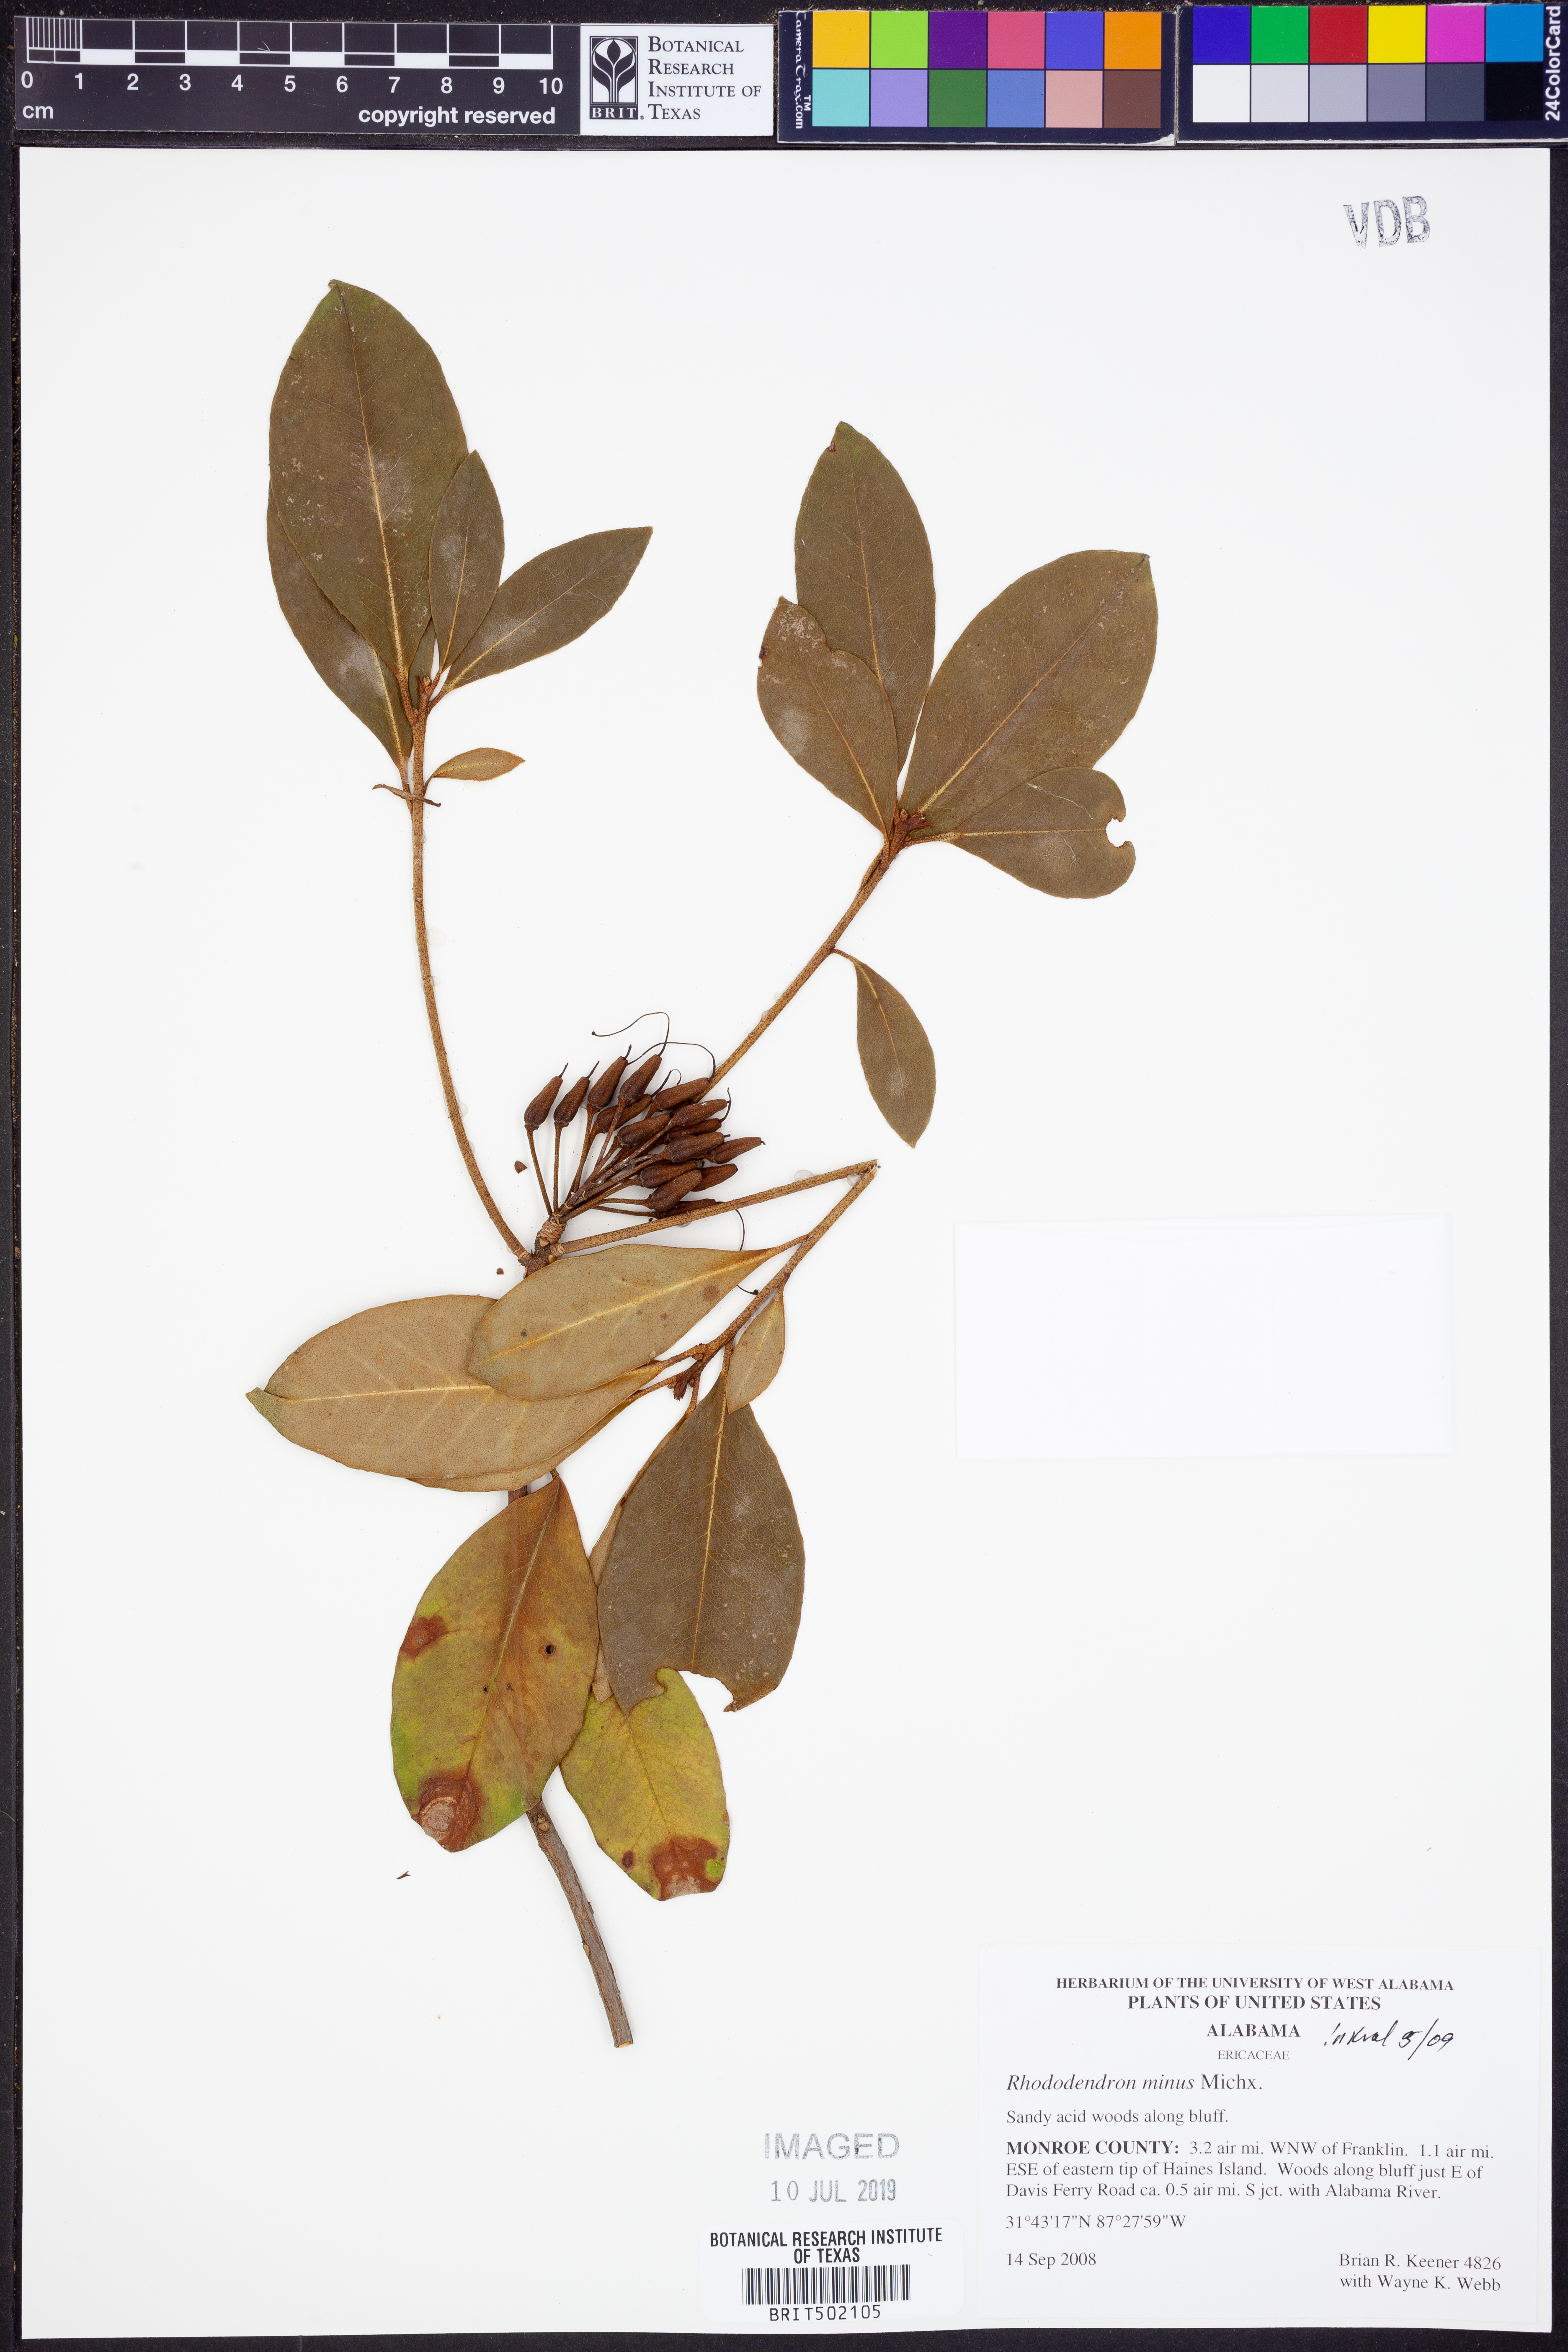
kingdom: Plantae
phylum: Tracheophyta
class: Magnoliopsida
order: Ericales
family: Ericaceae
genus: Rhododendron
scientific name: Rhododendron minus
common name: Piedmont rhododendron
